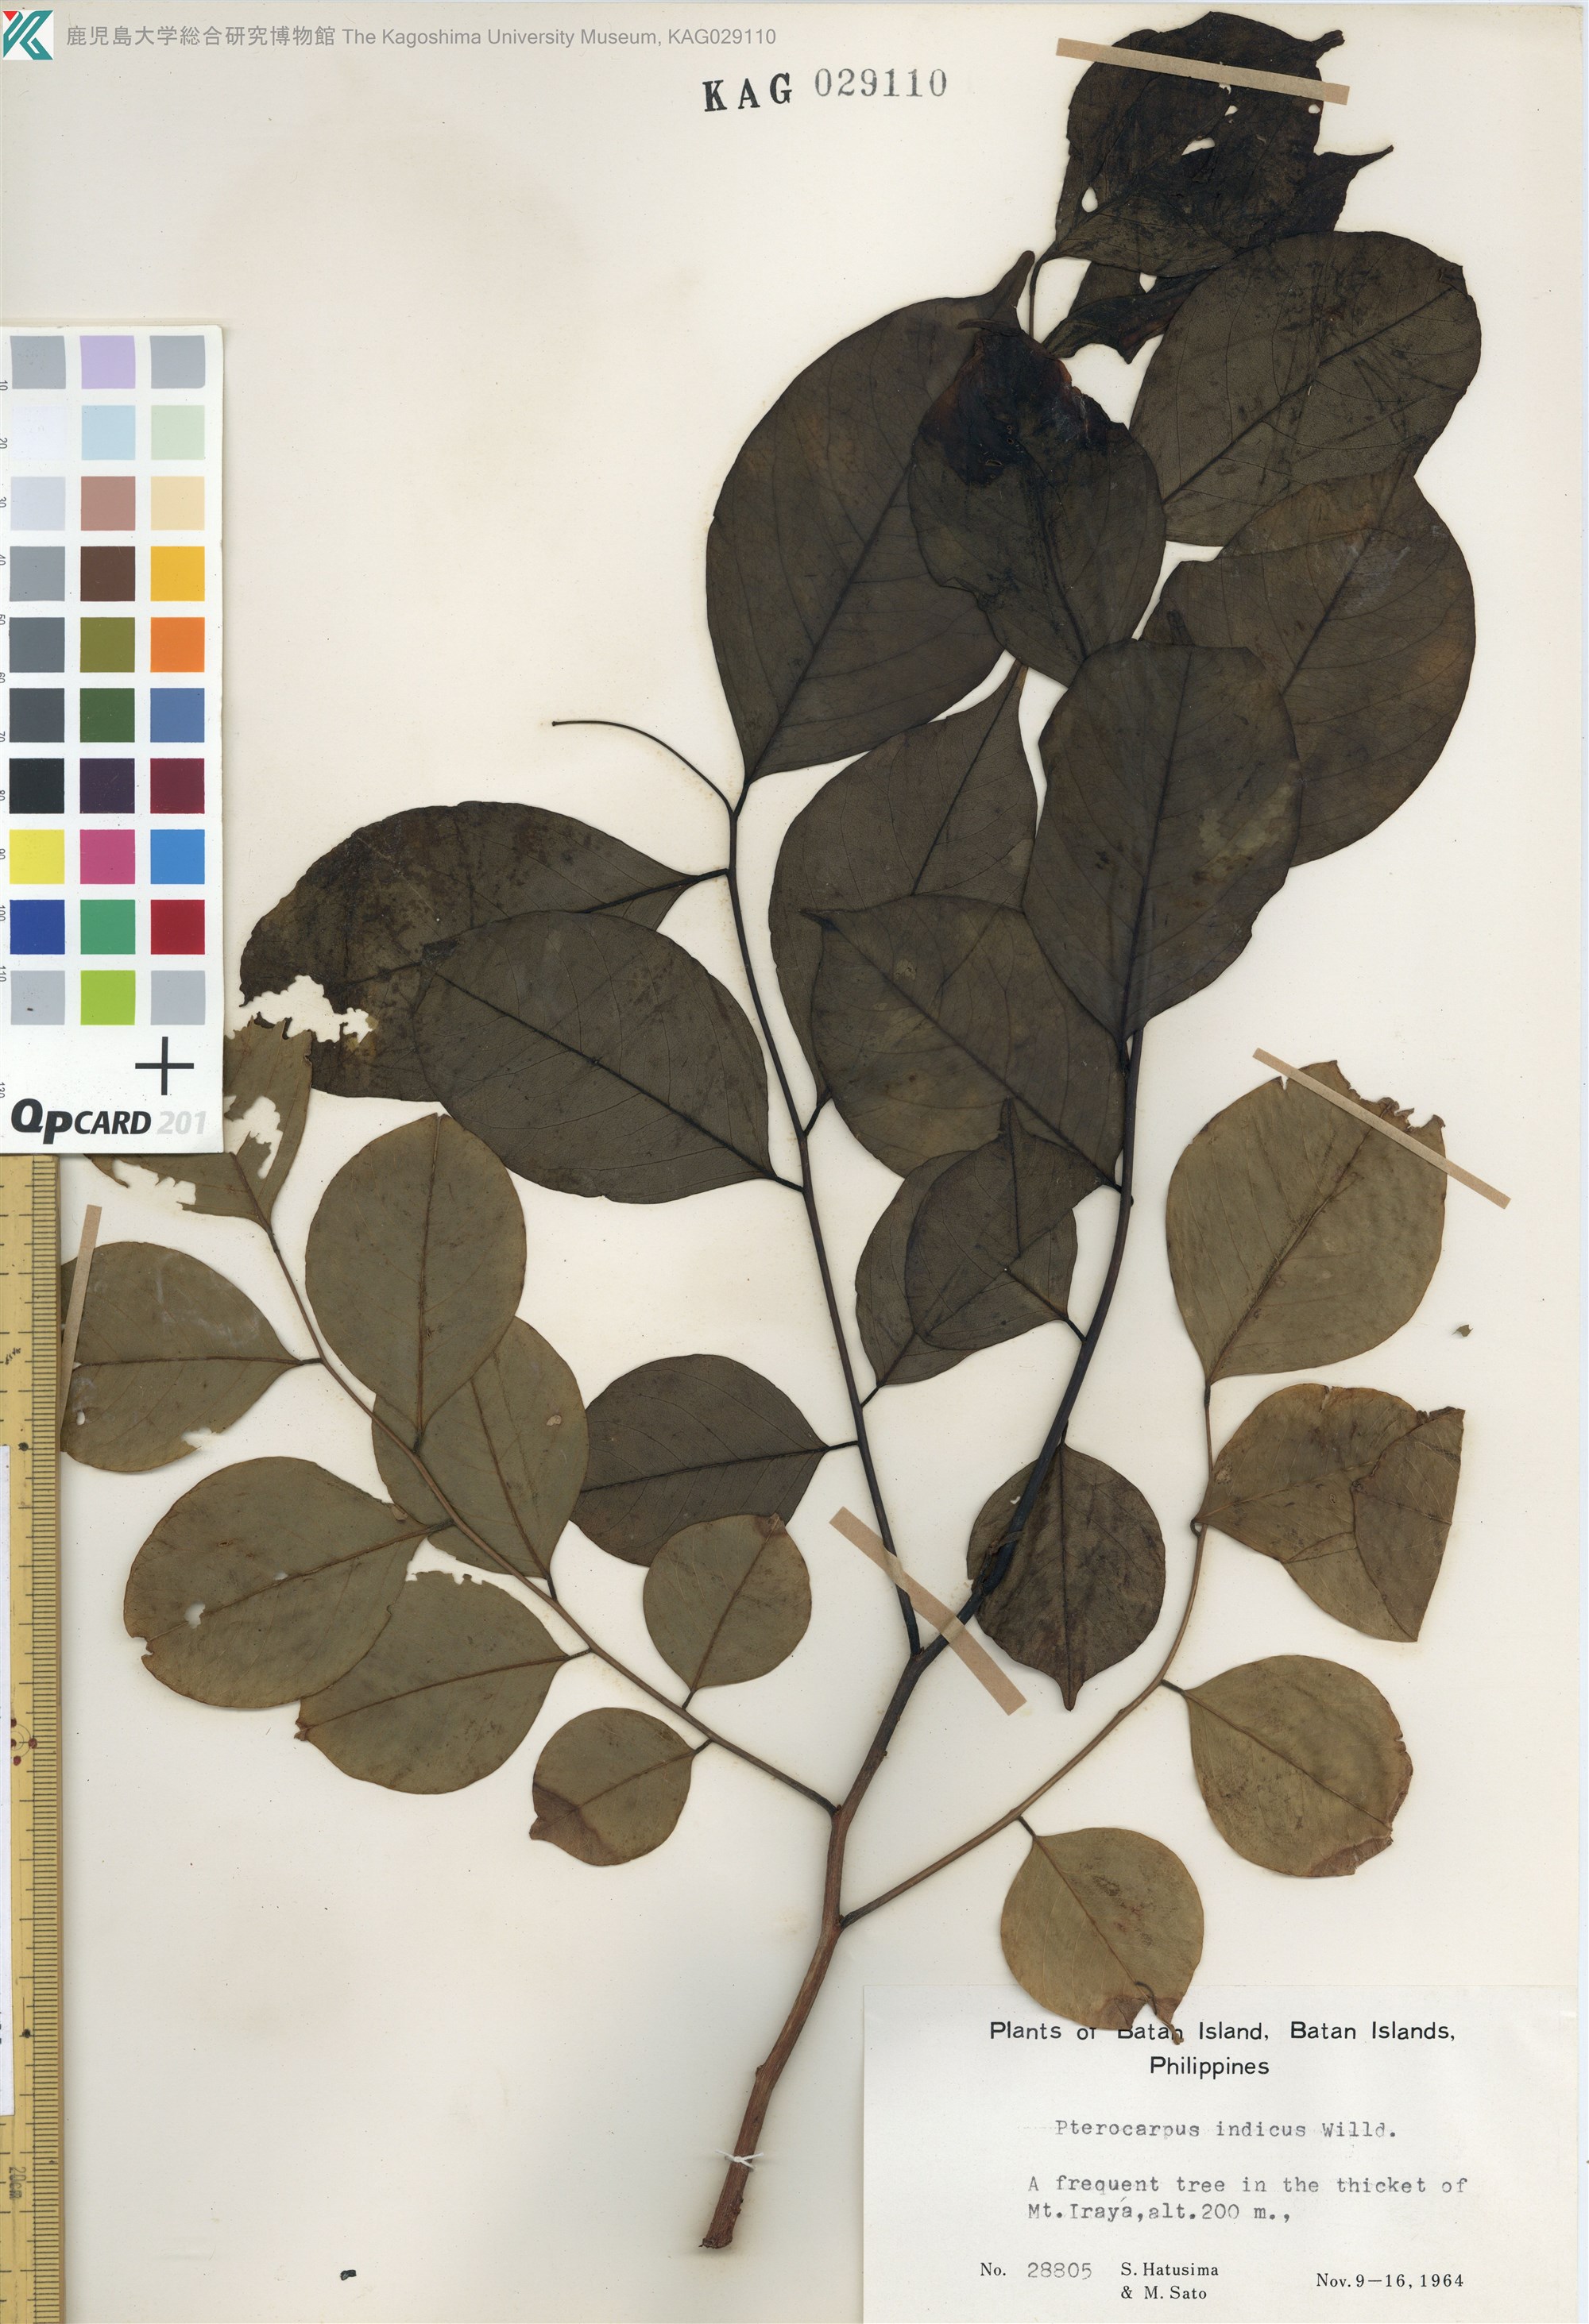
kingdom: Plantae
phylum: Tracheophyta
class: Magnoliopsida
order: Fabales
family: Fabaceae
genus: Pterocarpus
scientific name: Pterocarpus indicus
